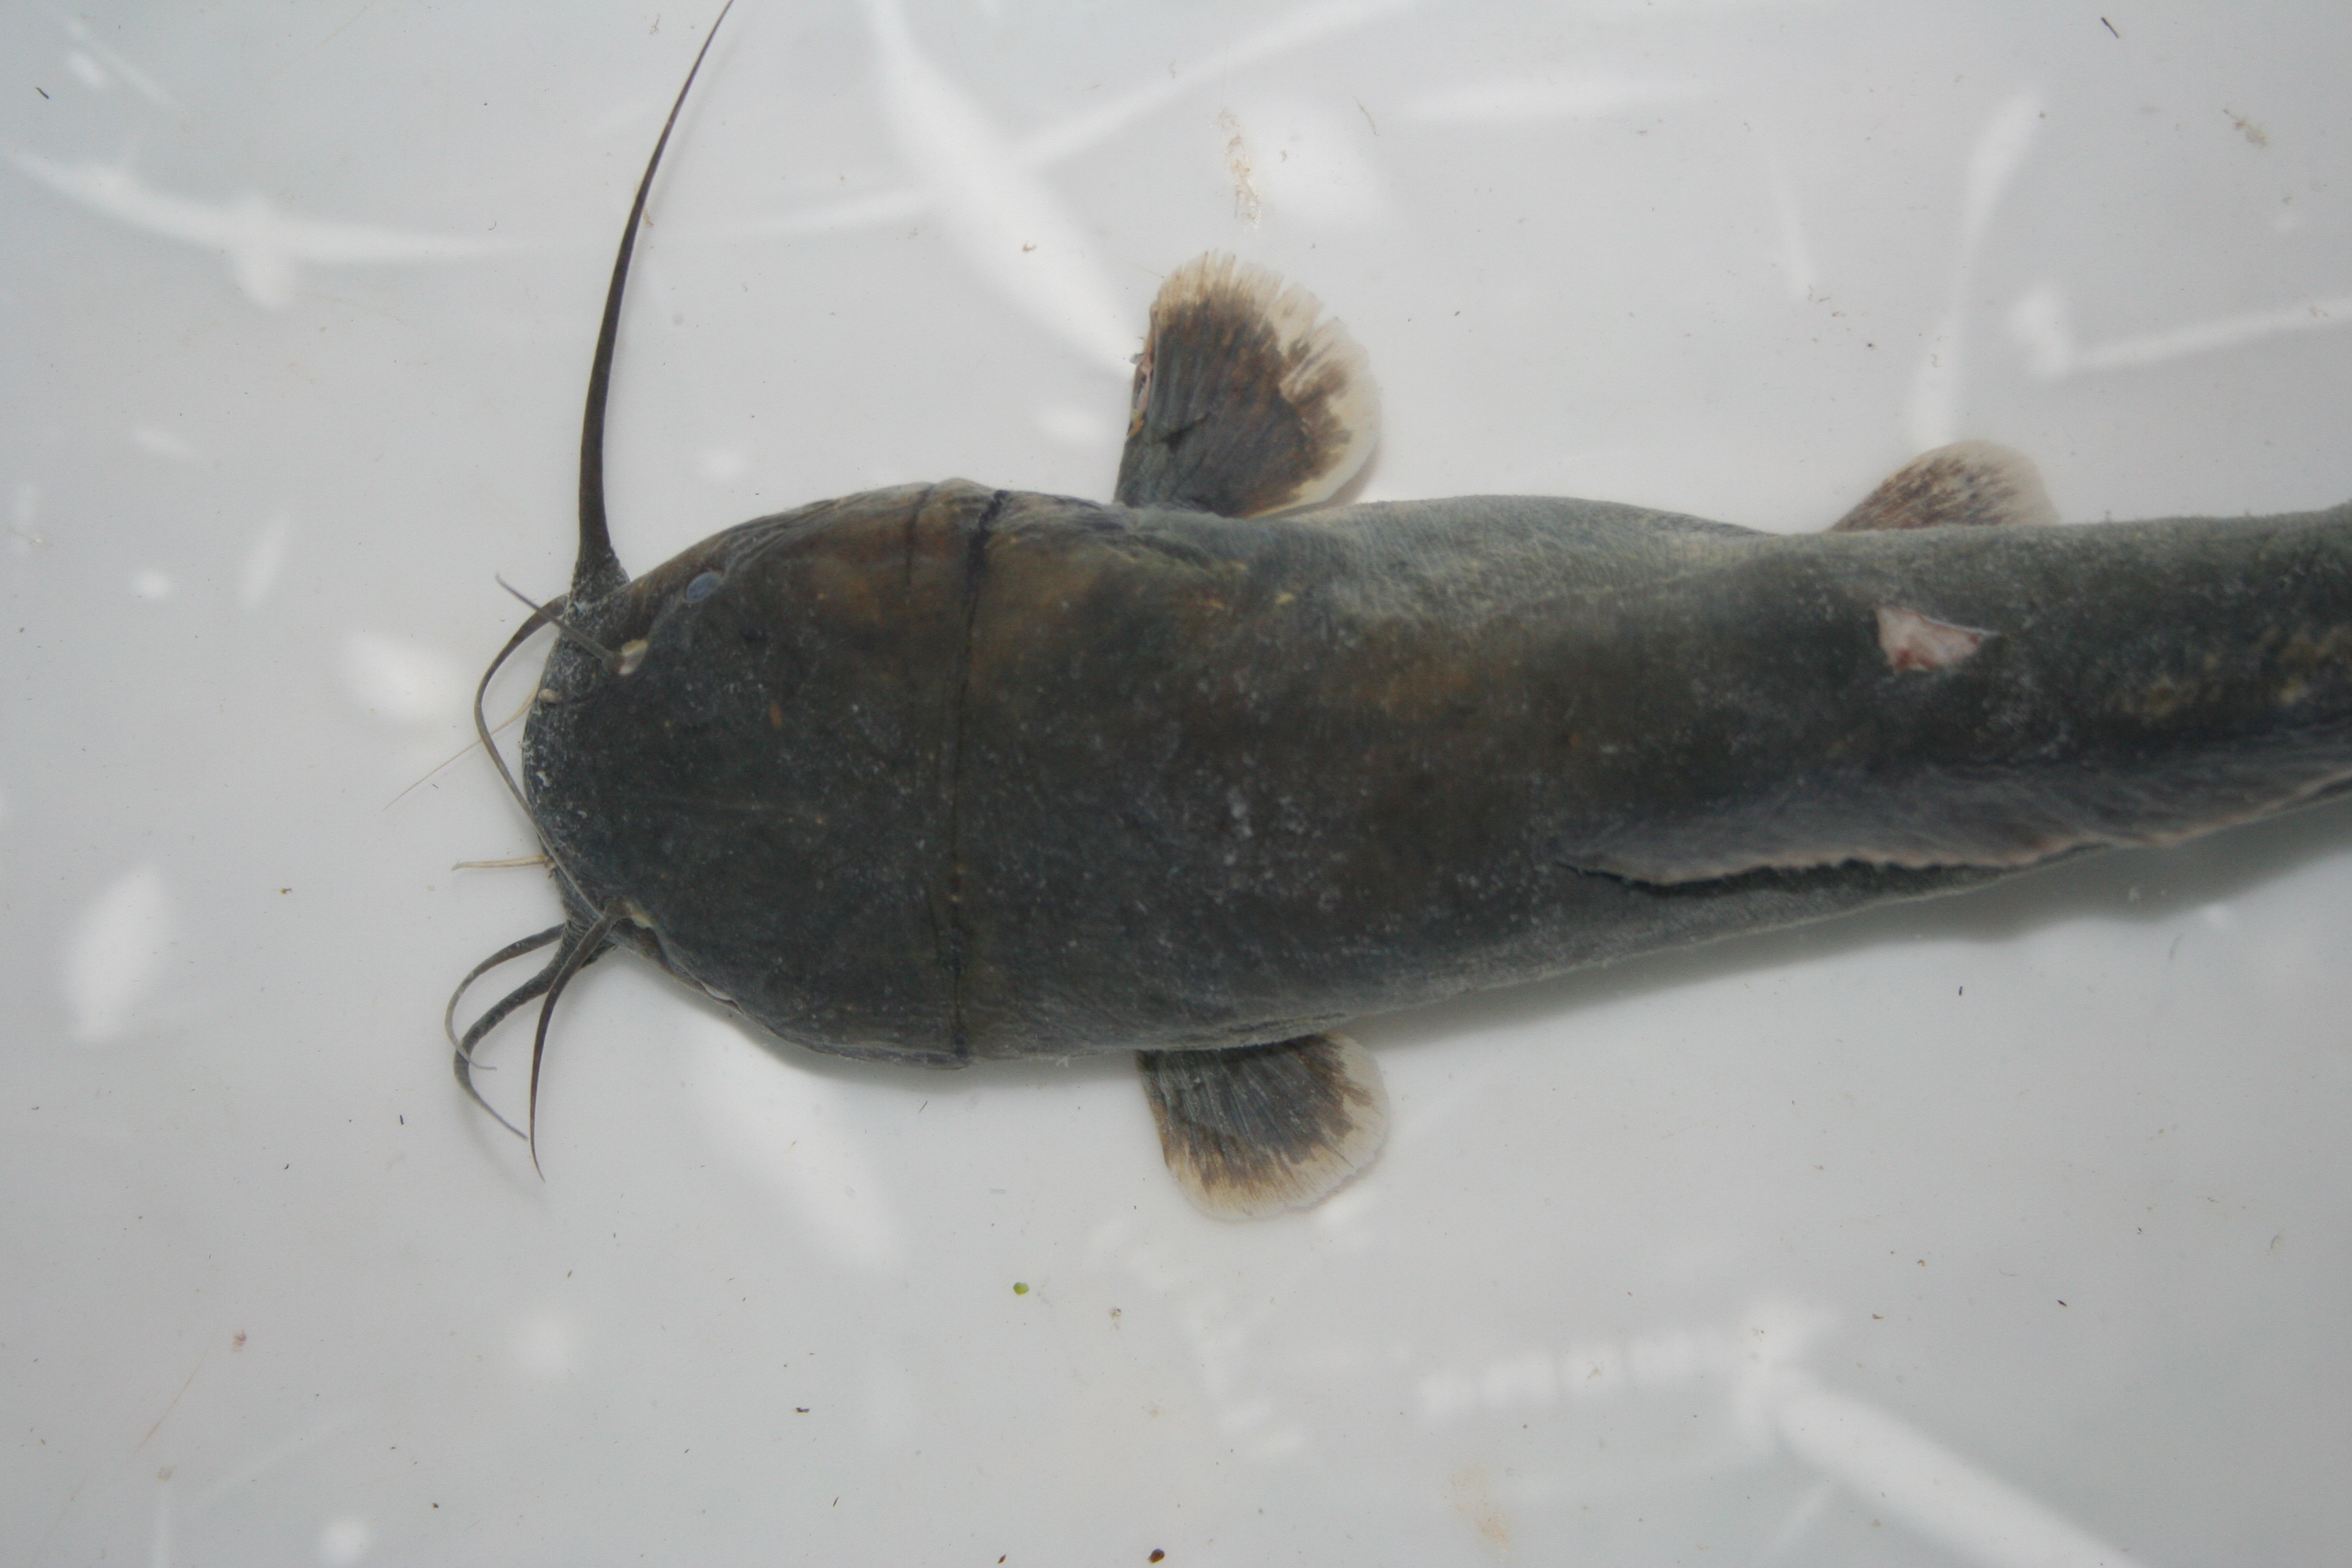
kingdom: Animalia
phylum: Chordata
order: Siluriformes
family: Clariidae
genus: Clarias
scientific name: Clarias
